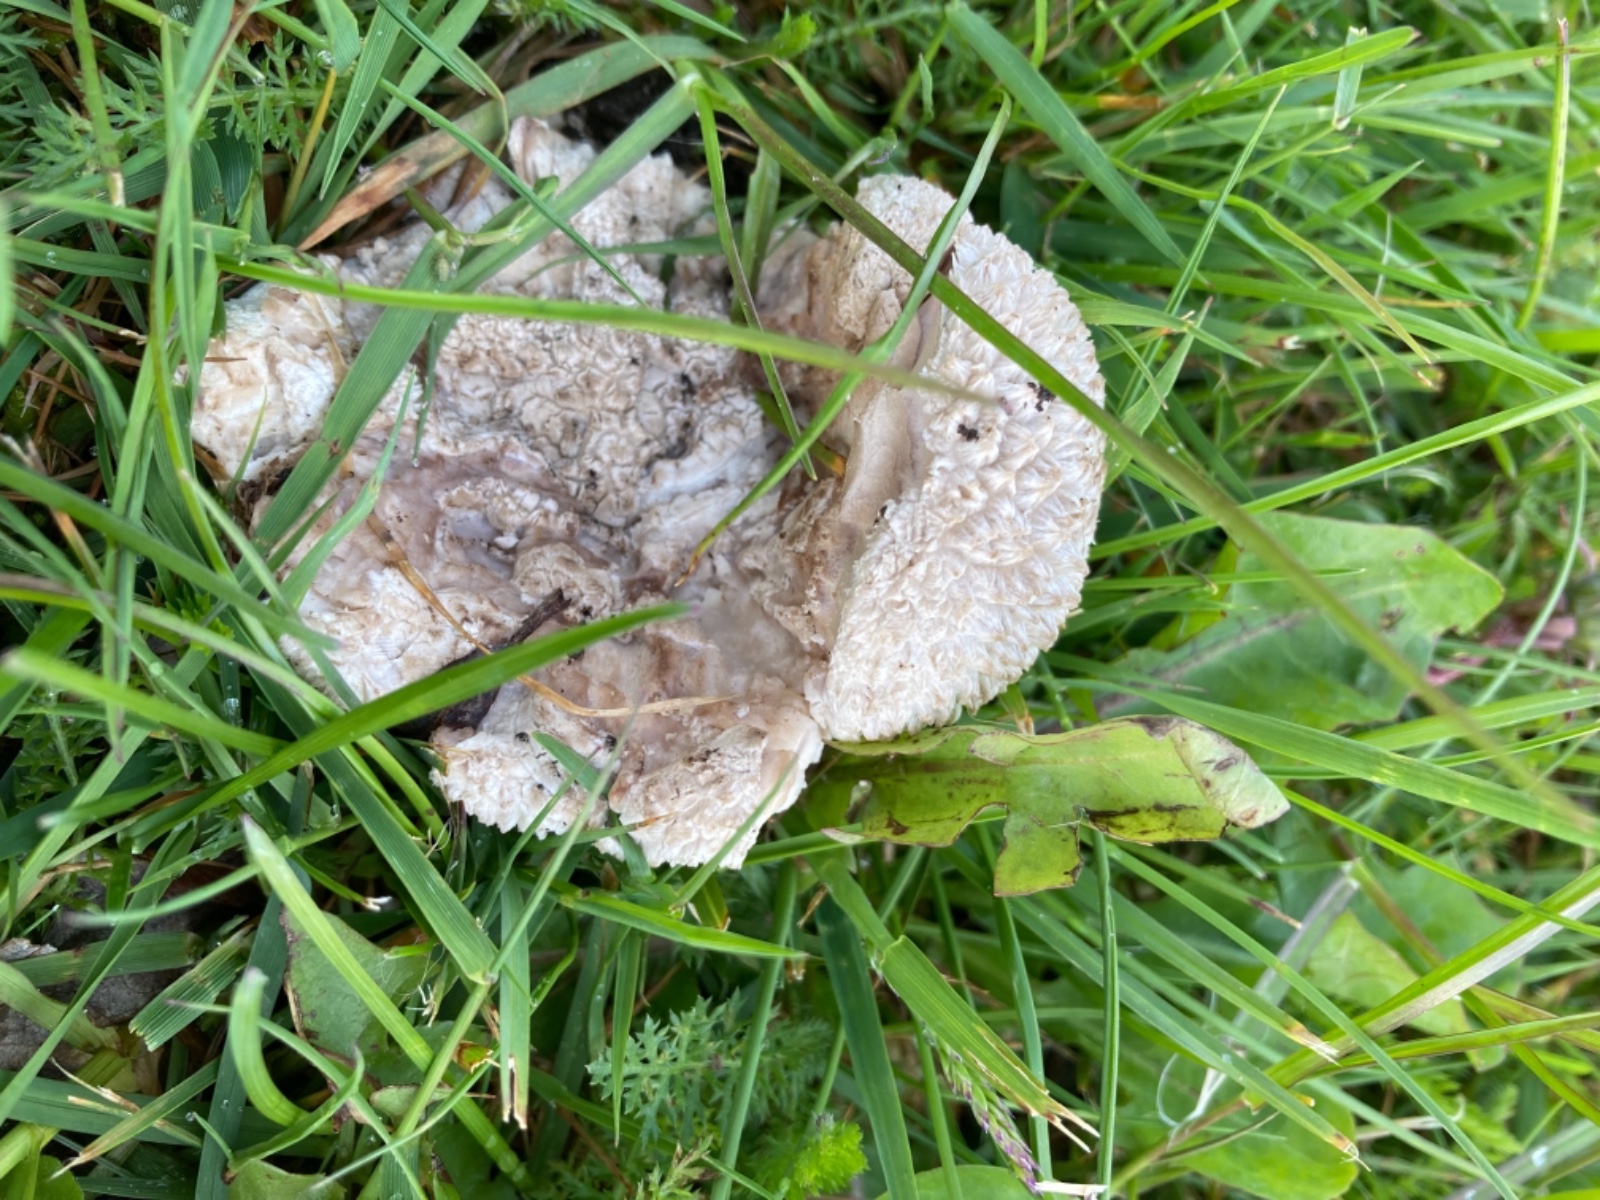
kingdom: Fungi
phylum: Basidiomycota
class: Agaricomycetes
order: Agaricales
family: Lycoperdaceae
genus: Bovistella
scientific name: Bovistella utriformis
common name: skællet støvbold
